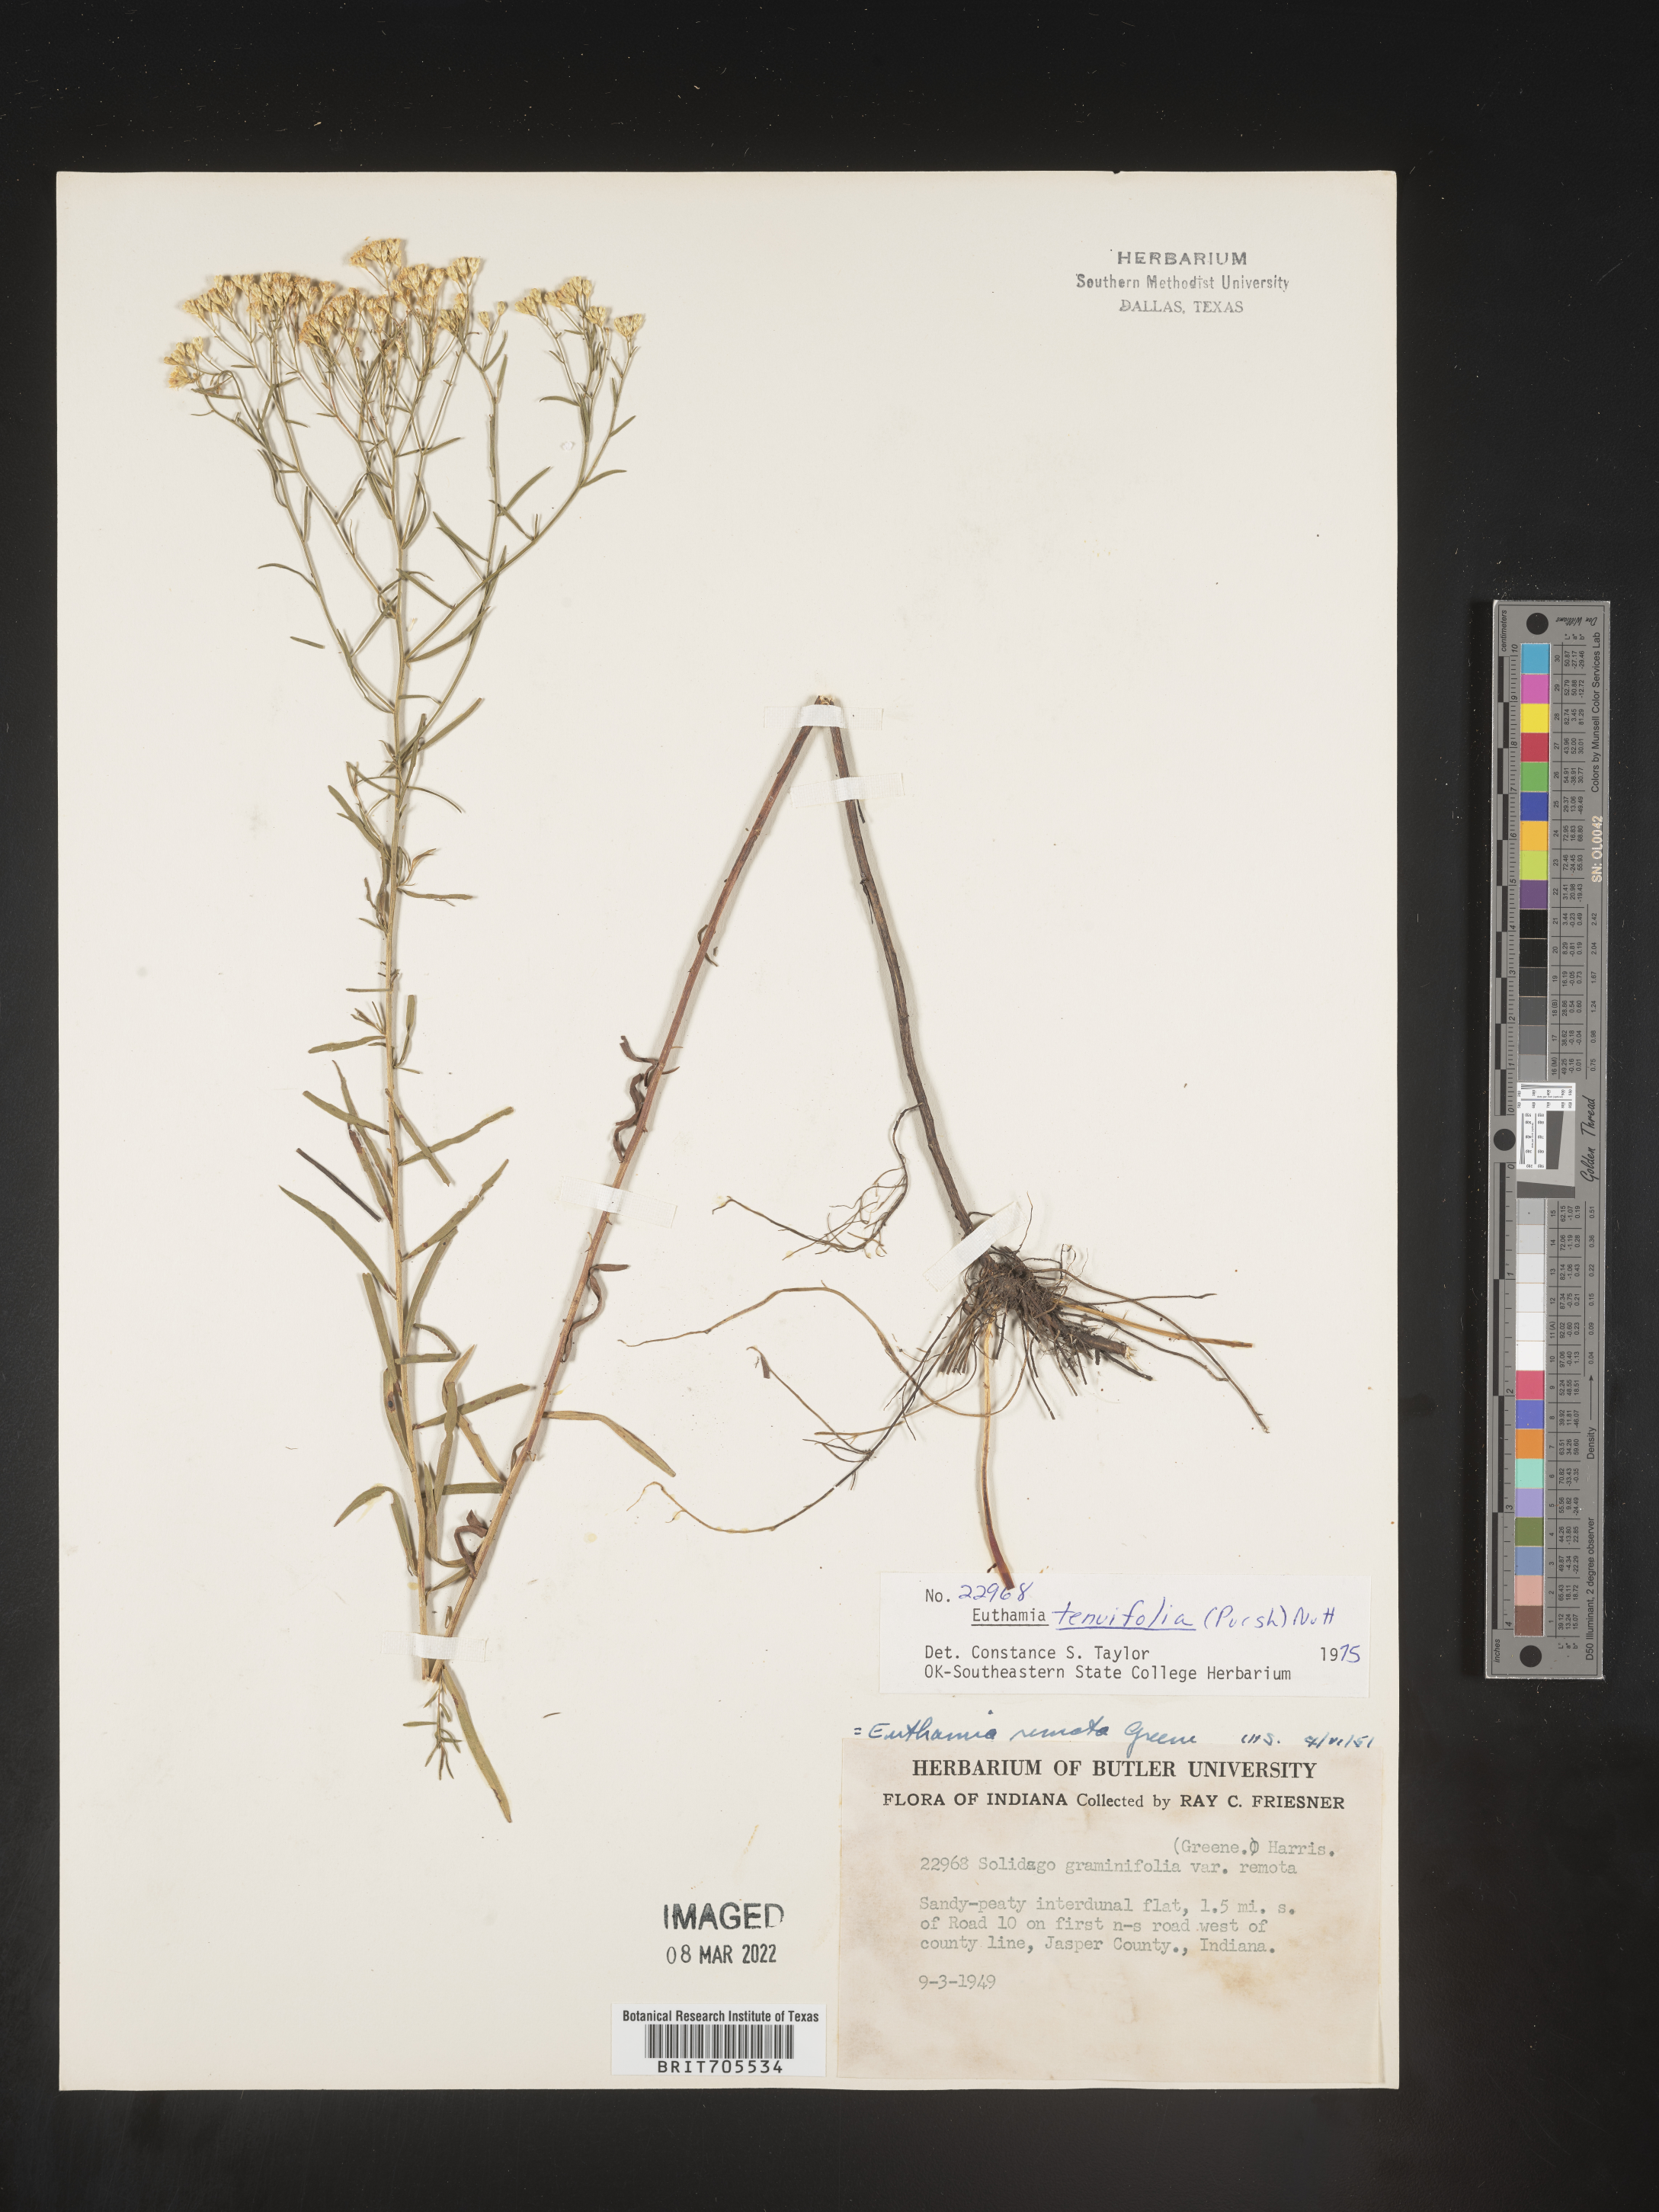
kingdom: Plantae
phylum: Tracheophyta
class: Magnoliopsida
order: Asterales
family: Asteraceae
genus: Euthamia
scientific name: Euthamia caroliniana
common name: Coastal plain goldentop
